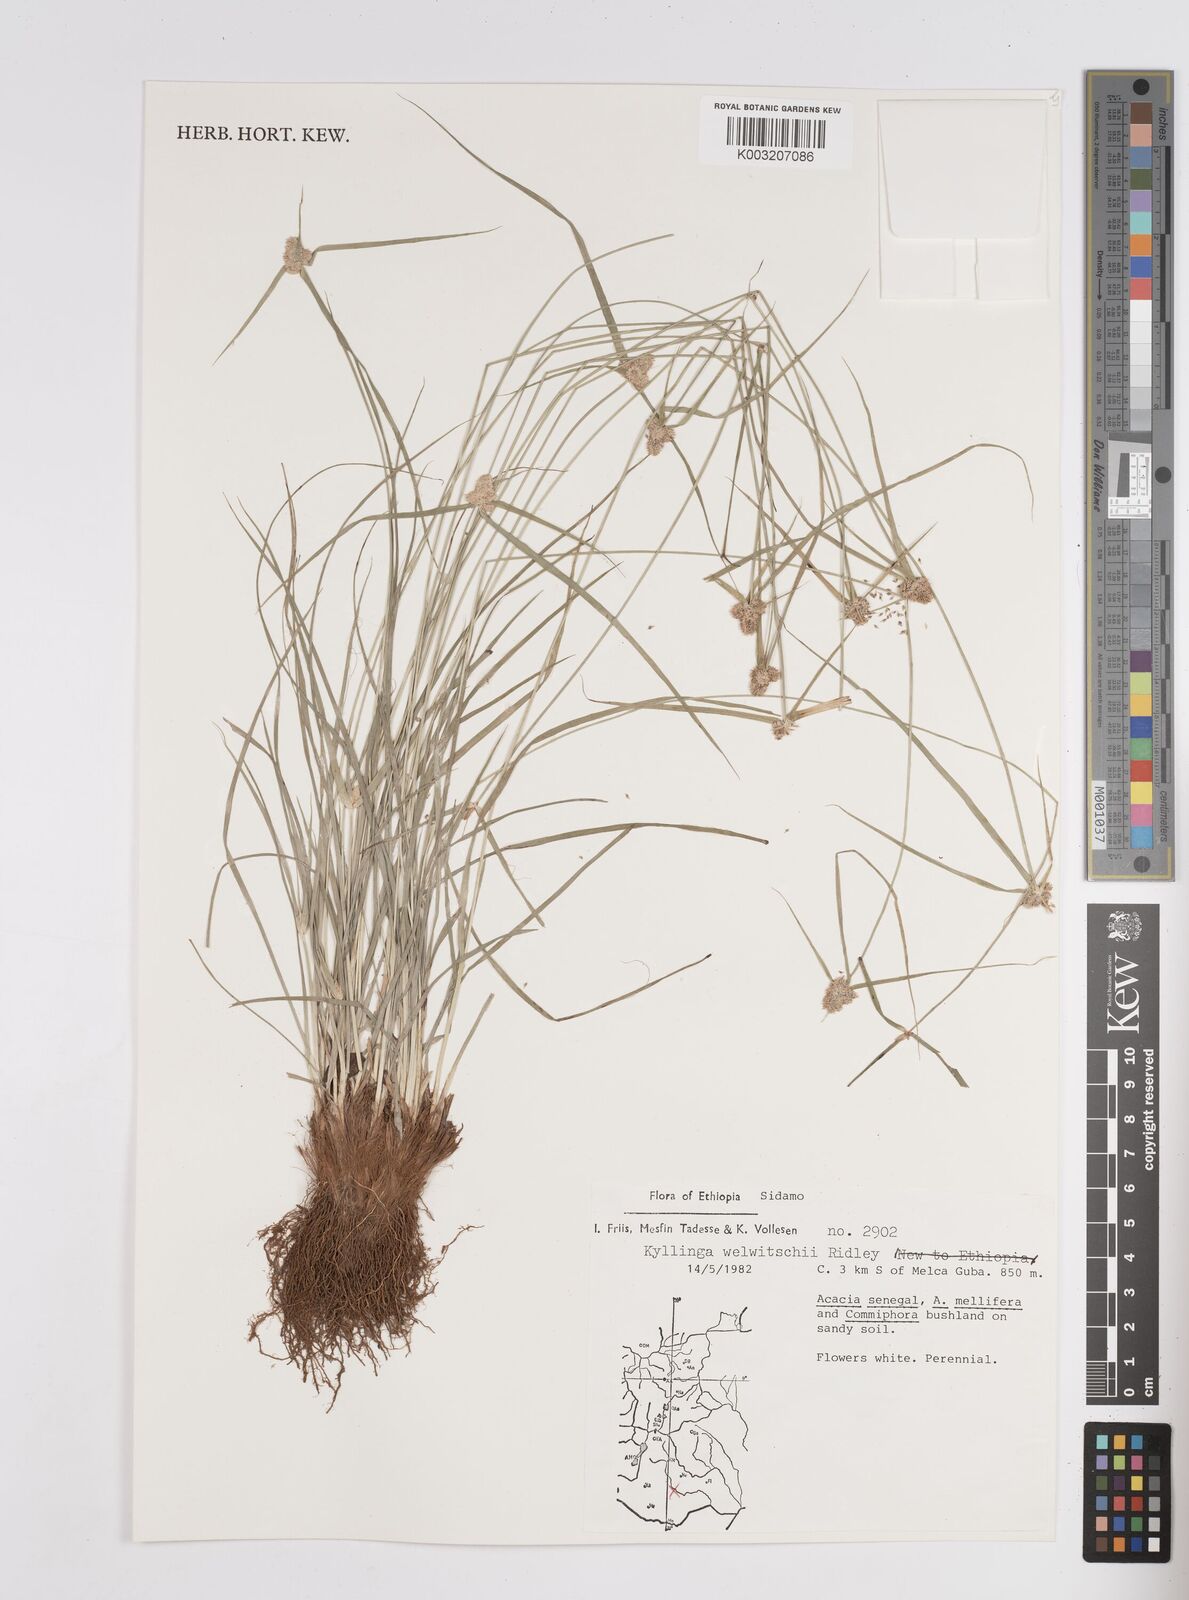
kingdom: Plantae
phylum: Tracheophyta
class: Liliopsida
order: Poales
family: Cyperaceae
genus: Cyperus
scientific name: Cyperus welwitschii
